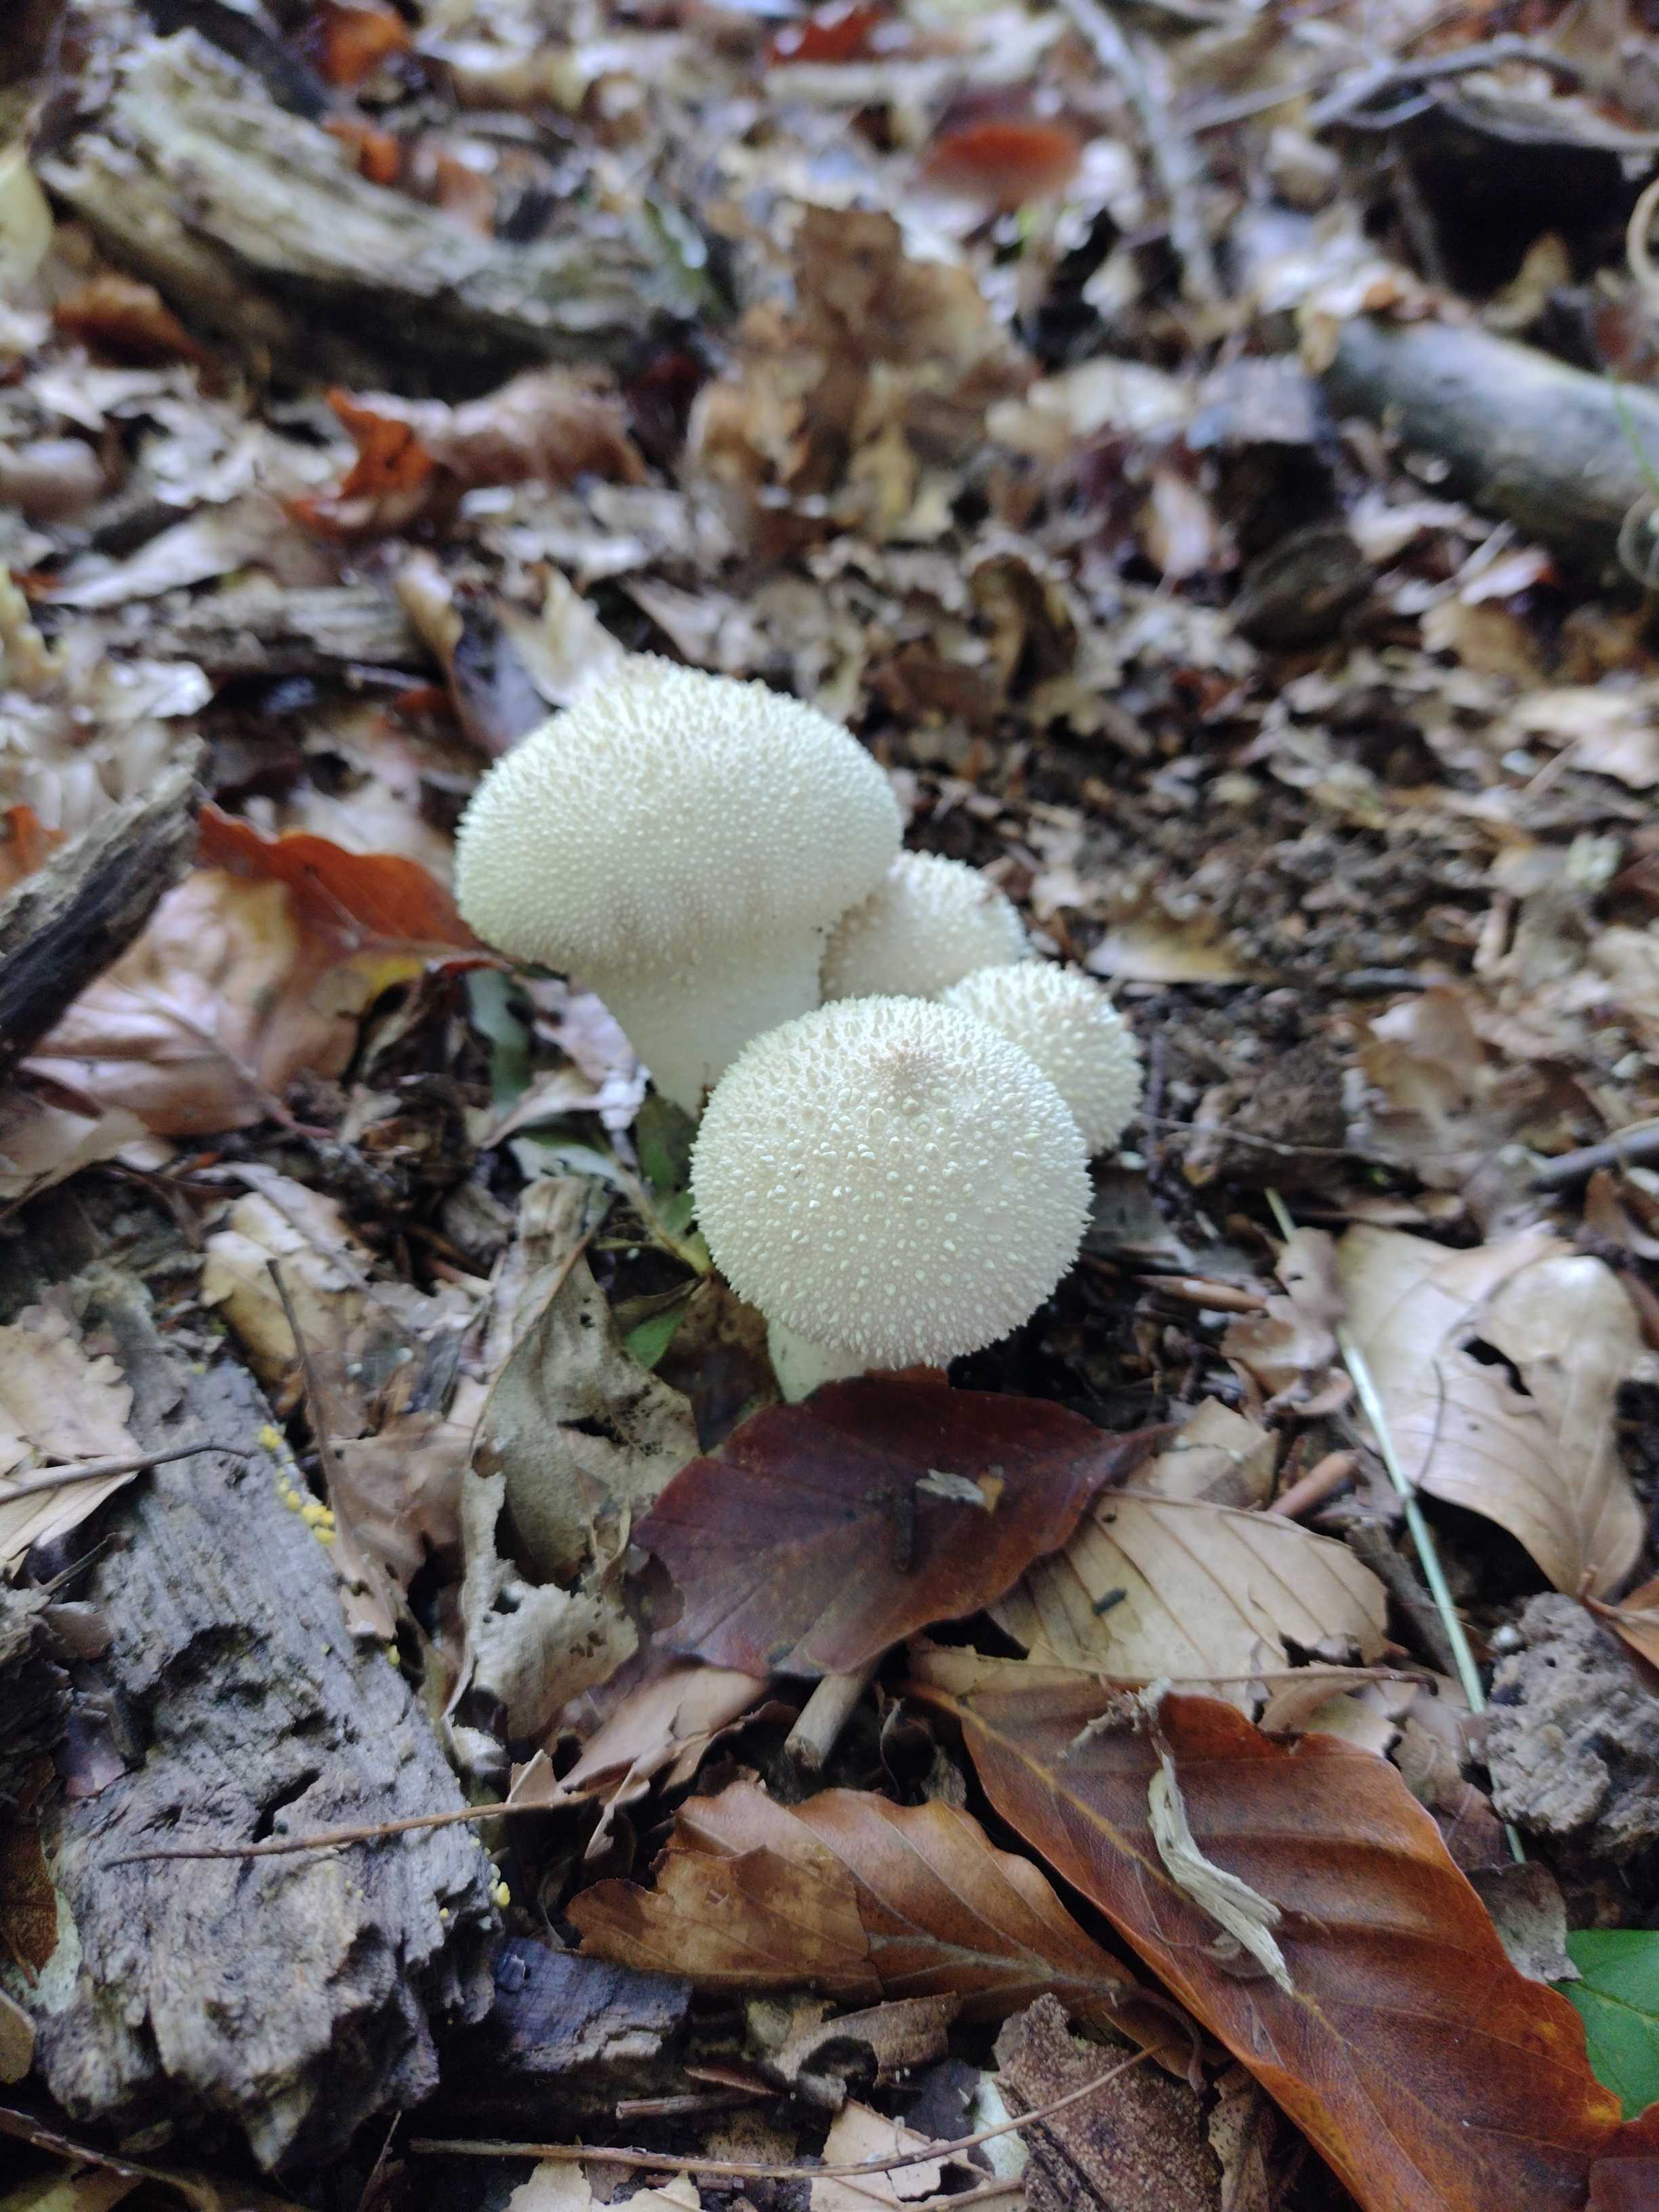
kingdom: Fungi
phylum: Basidiomycota
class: Agaricomycetes
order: Agaricales
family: Lycoperdaceae
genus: Lycoperdon
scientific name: Lycoperdon perlatum
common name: krystal-støvbold
